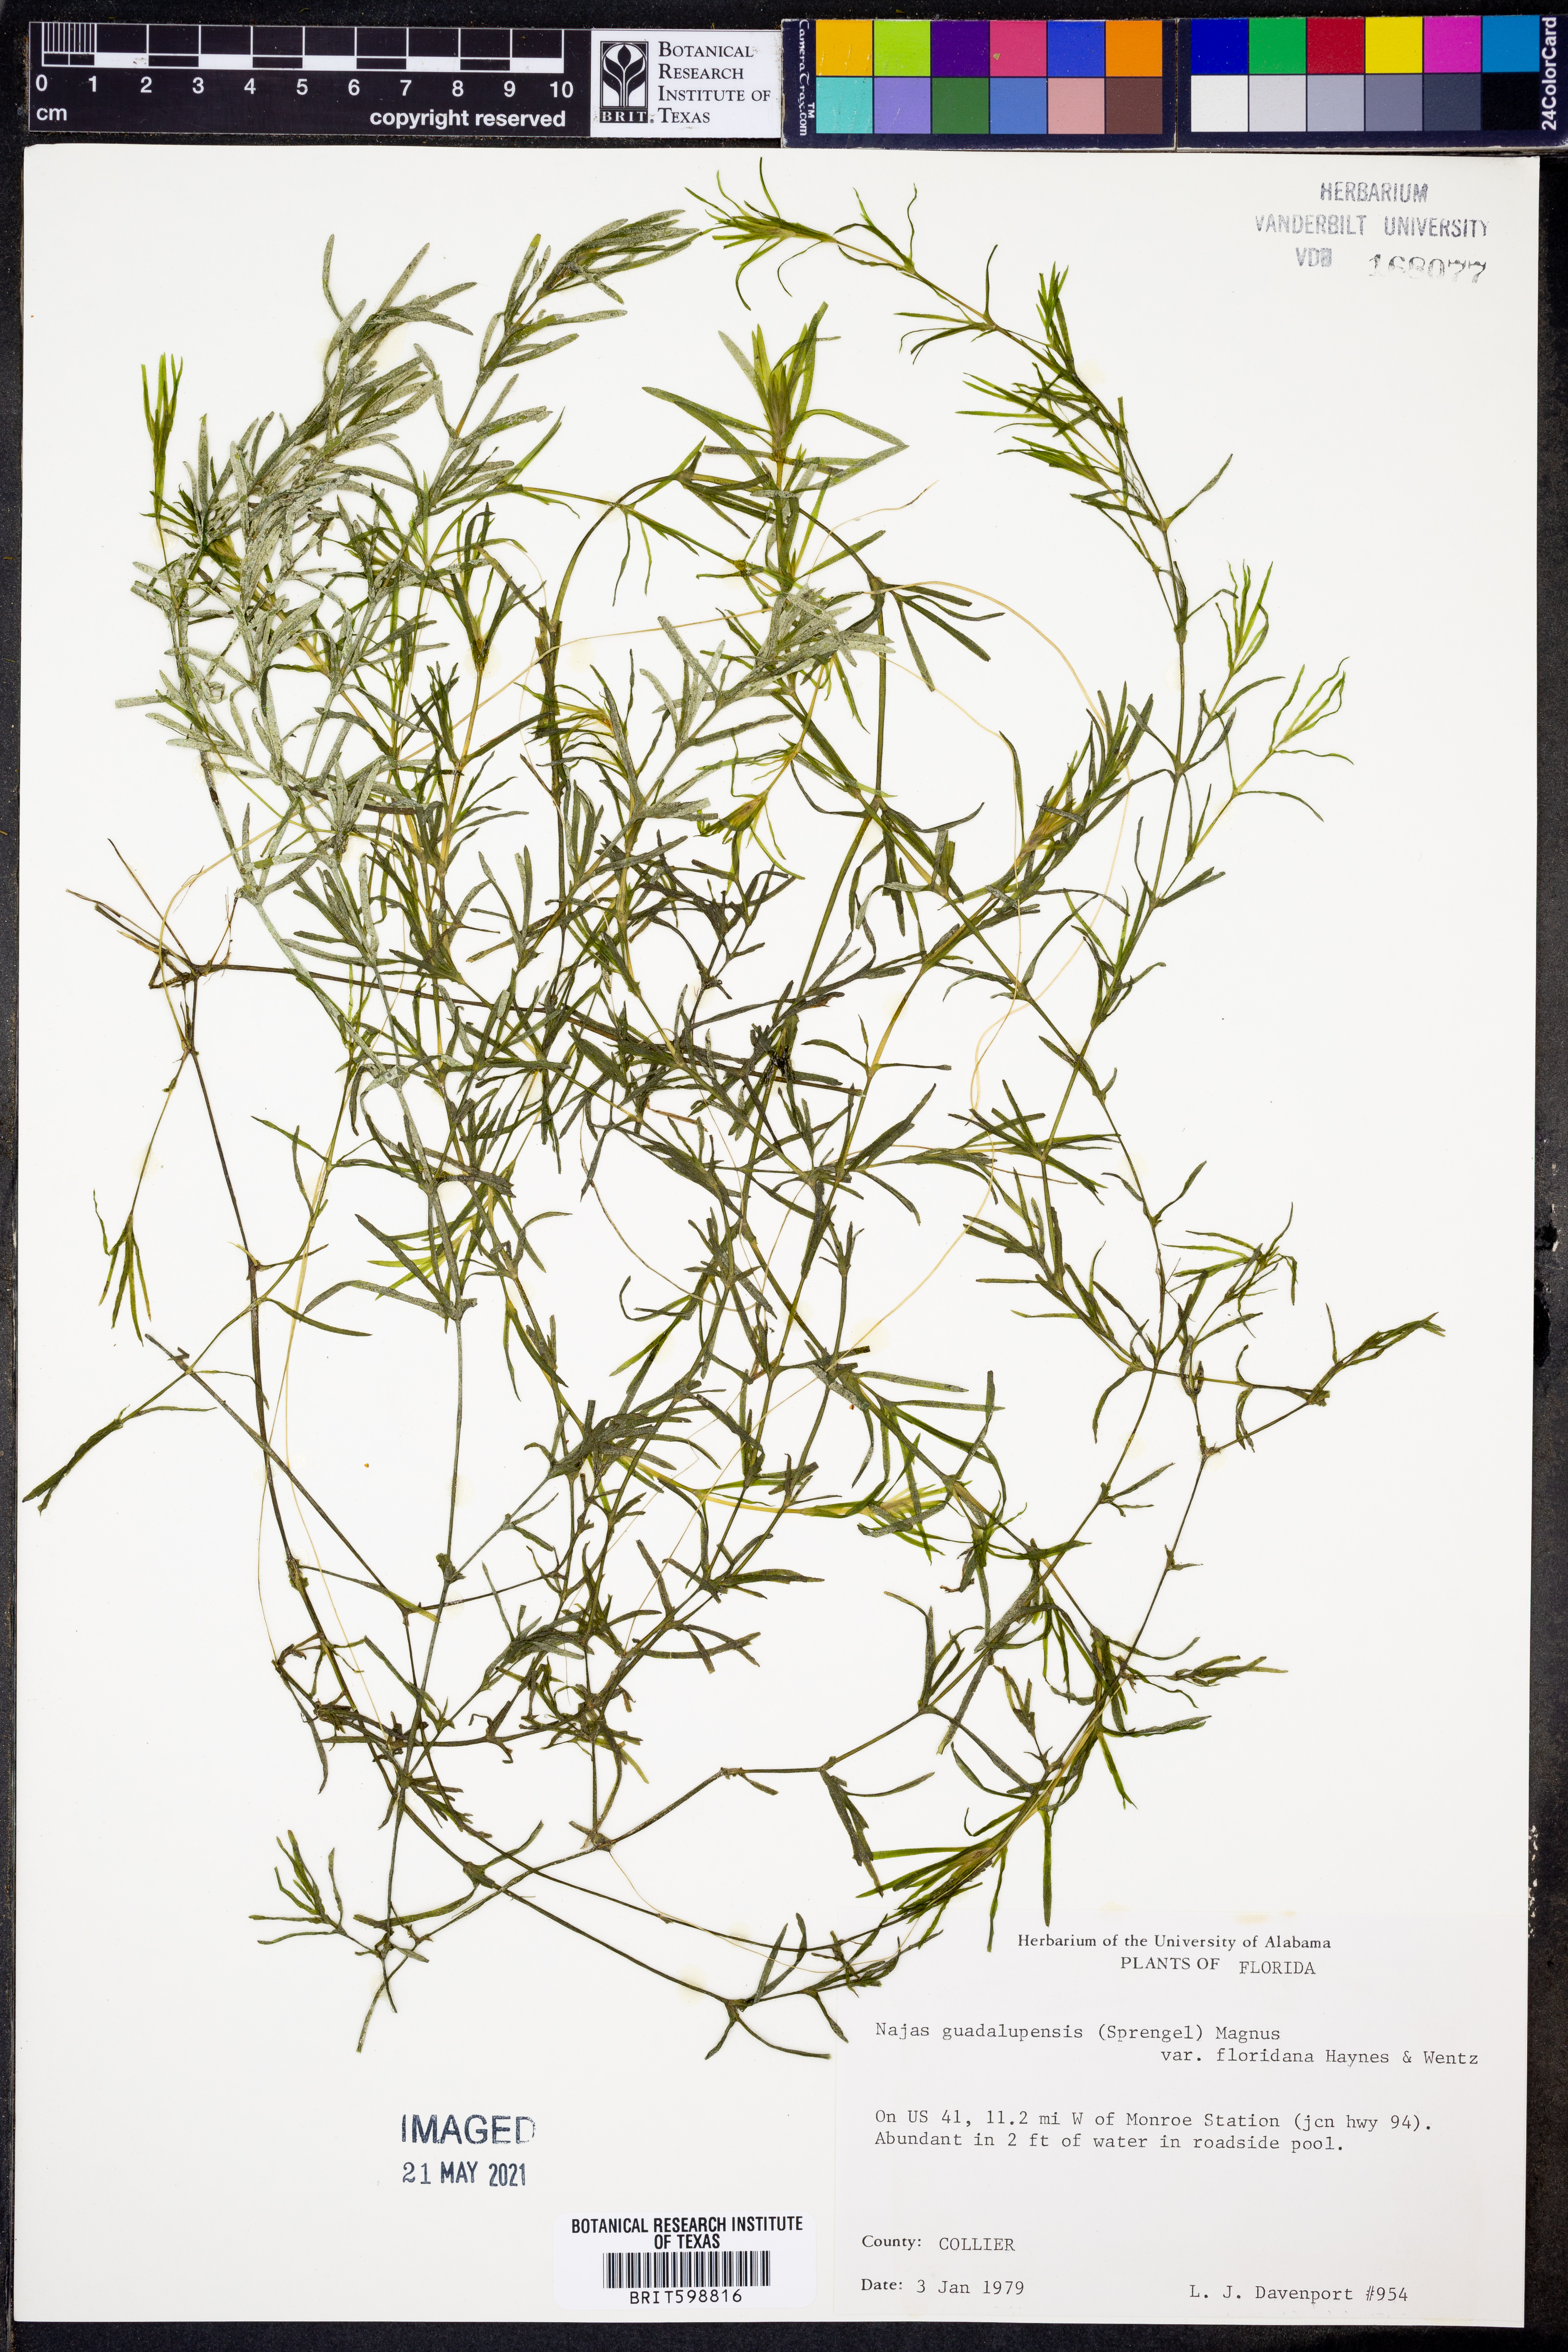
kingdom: Plantae
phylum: Tracheophyta
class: Liliopsida
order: Alismatales
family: Hydrocharitaceae
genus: Najas
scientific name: Najas guadalupensis
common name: Southern naiad
